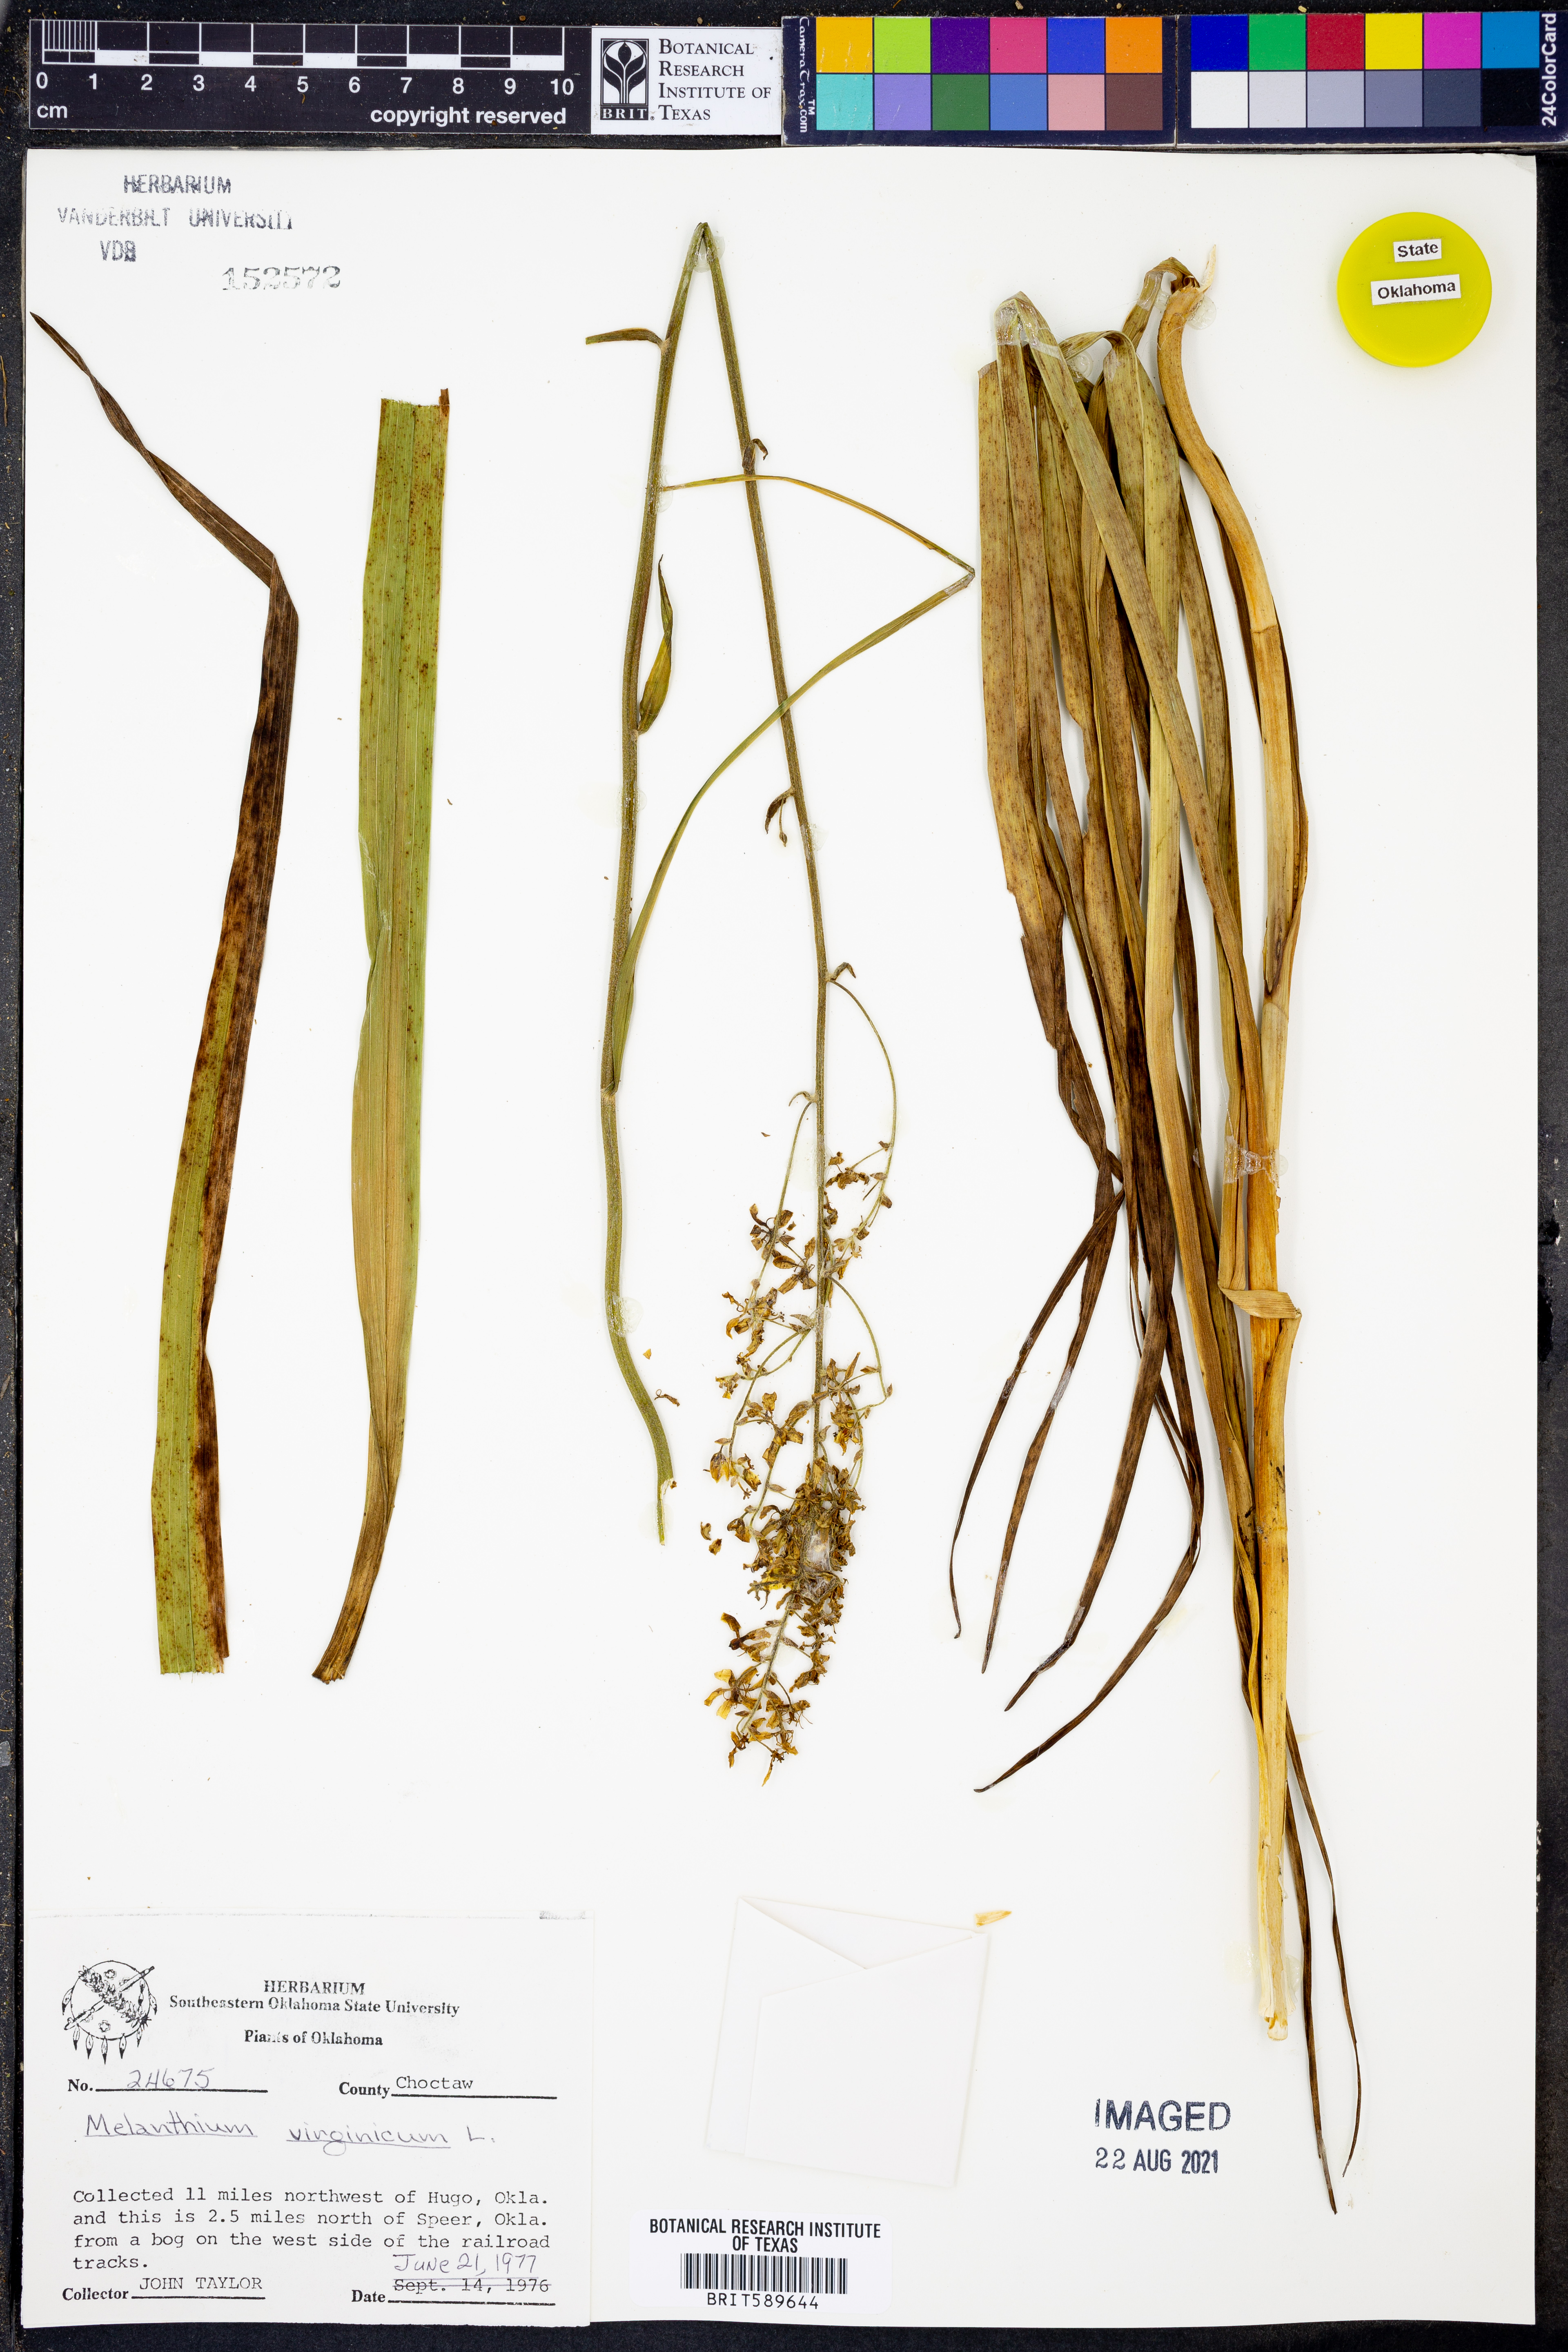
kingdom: Plantae
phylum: Tracheophyta
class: Liliopsida
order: Liliales
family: Melanthiaceae
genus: Melanthium
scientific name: Melanthium virginicum
